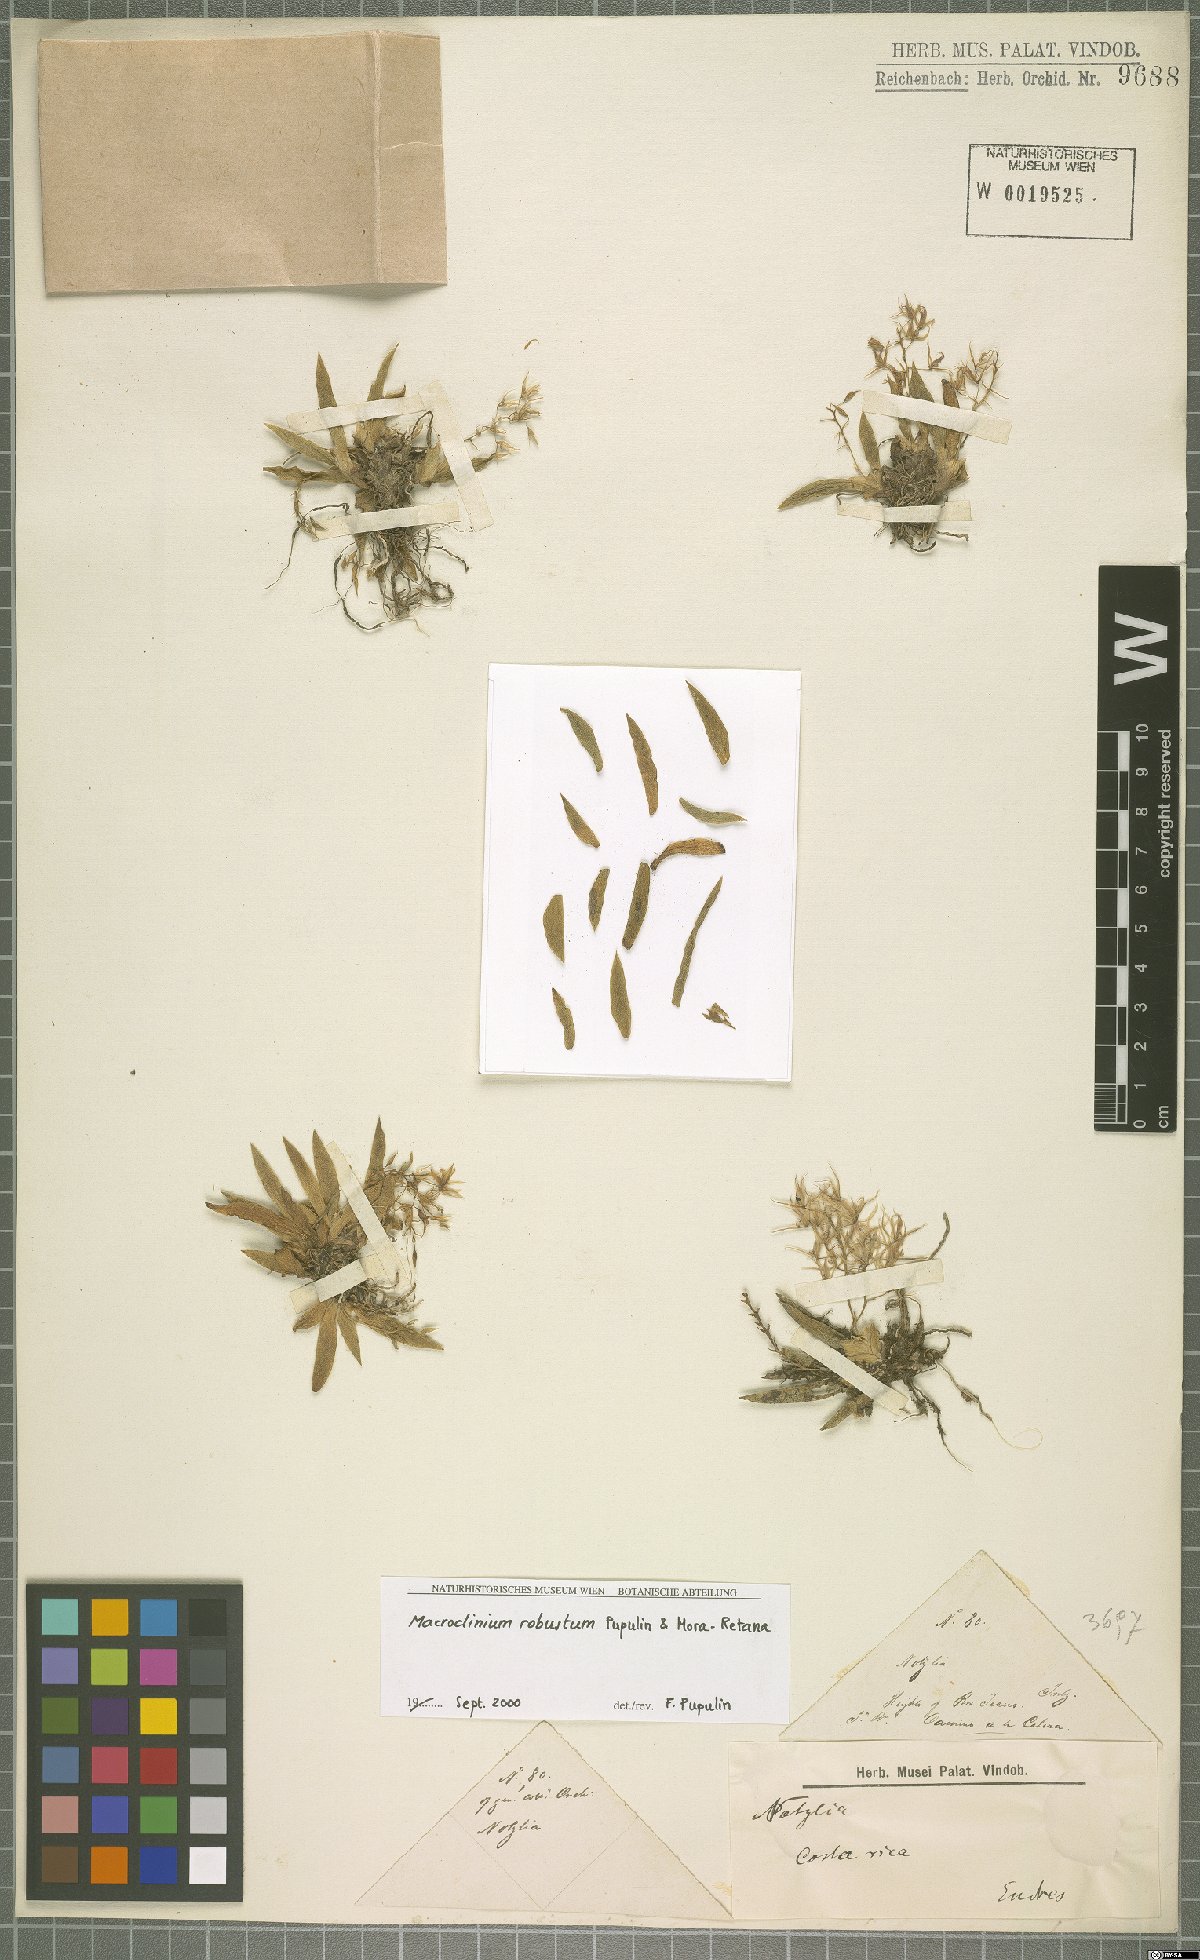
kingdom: Plantae
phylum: Tracheophyta
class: Liliopsida
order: Asparagales
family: Orchidaceae
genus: Macroclinium
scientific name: Macroclinium robustum
